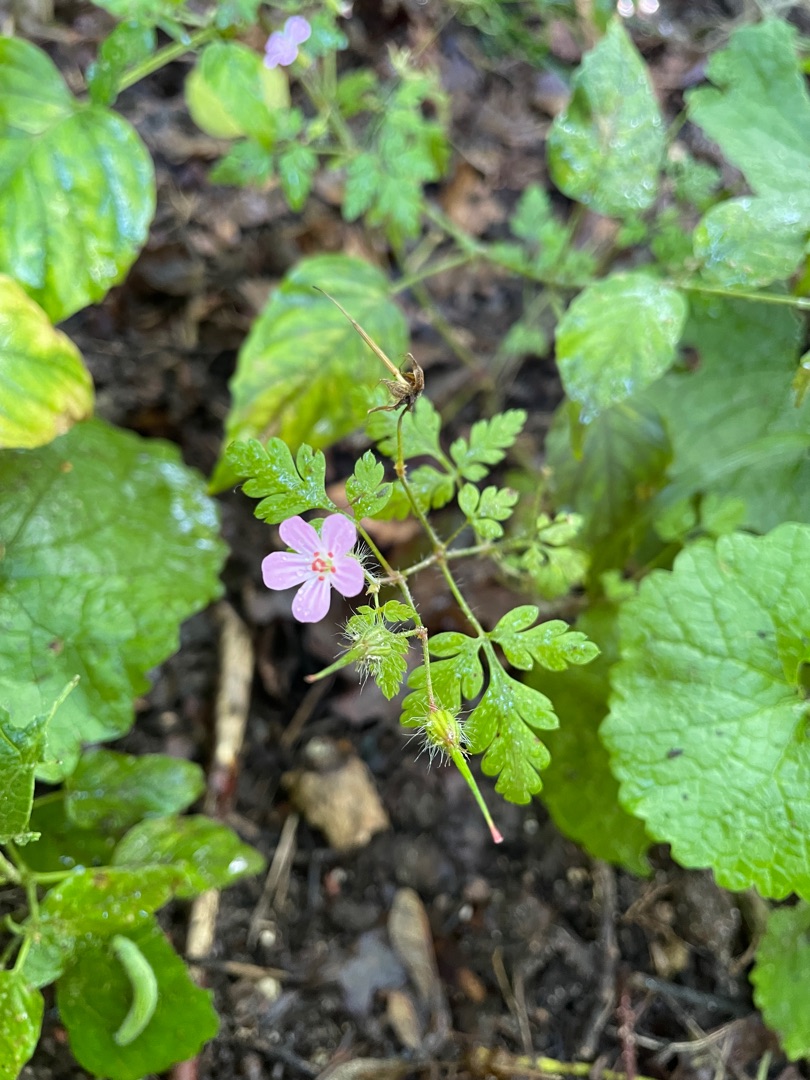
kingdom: Plantae
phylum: Tracheophyta
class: Magnoliopsida
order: Geraniales
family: Geraniaceae
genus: Geranium
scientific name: Geranium robertianum
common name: Stinkende storkenæb
